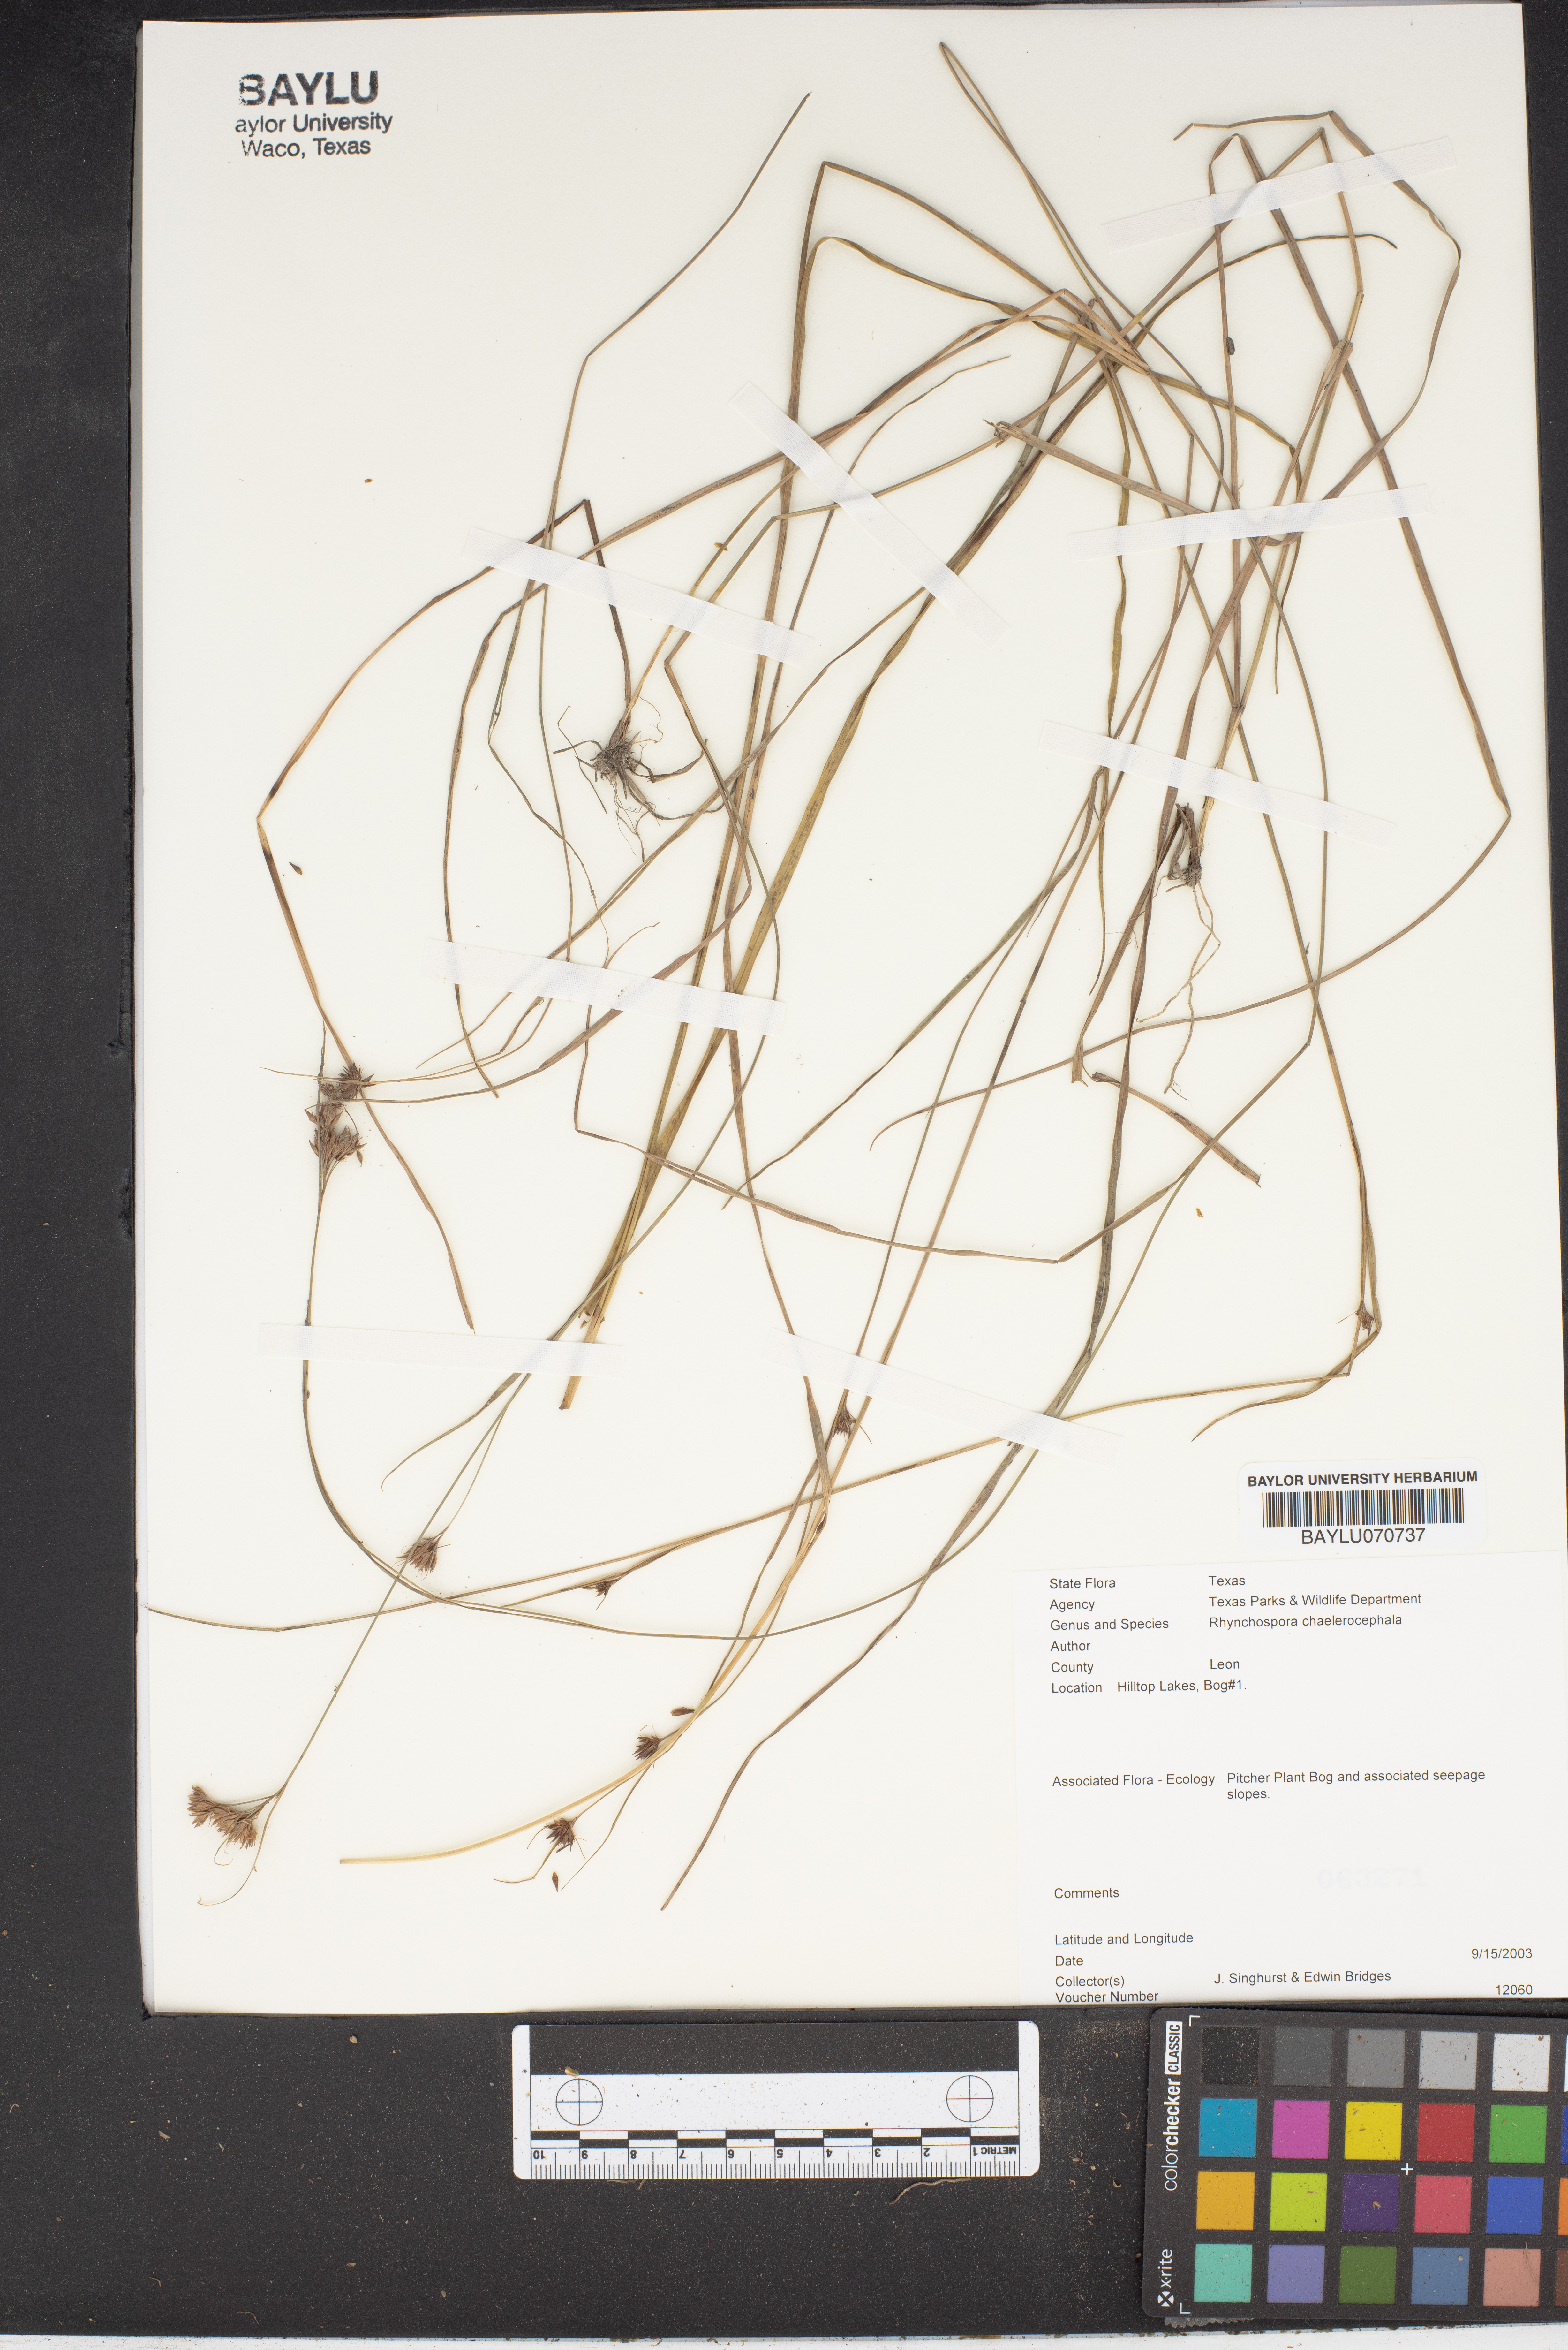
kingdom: Plantae
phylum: Tracheophyta
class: Liliopsida
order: Poales
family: Cyperaceae
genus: Rhynchospora
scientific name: Rhynchospora chalarocephala
